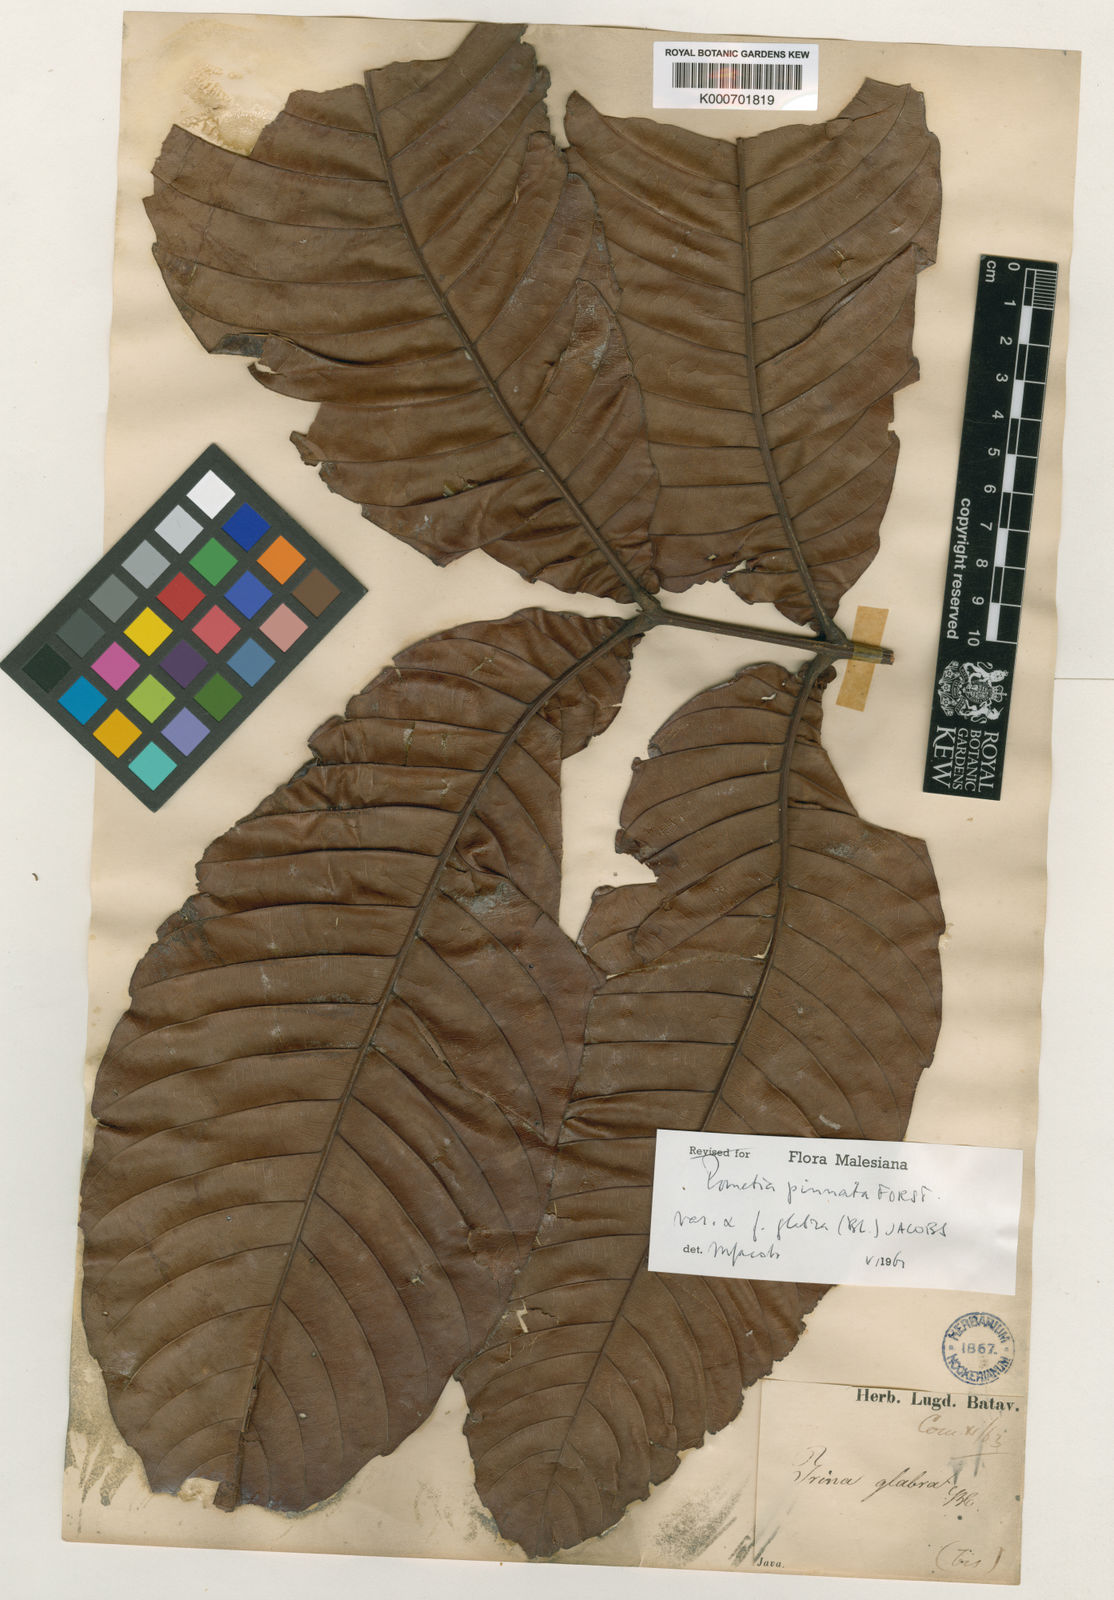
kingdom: Plantae
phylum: Tracheophyta
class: Magnoliopsida
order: Sapindales
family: Sapindaceae
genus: Pometia
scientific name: Pometia pinnata
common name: Oceanic lychee
